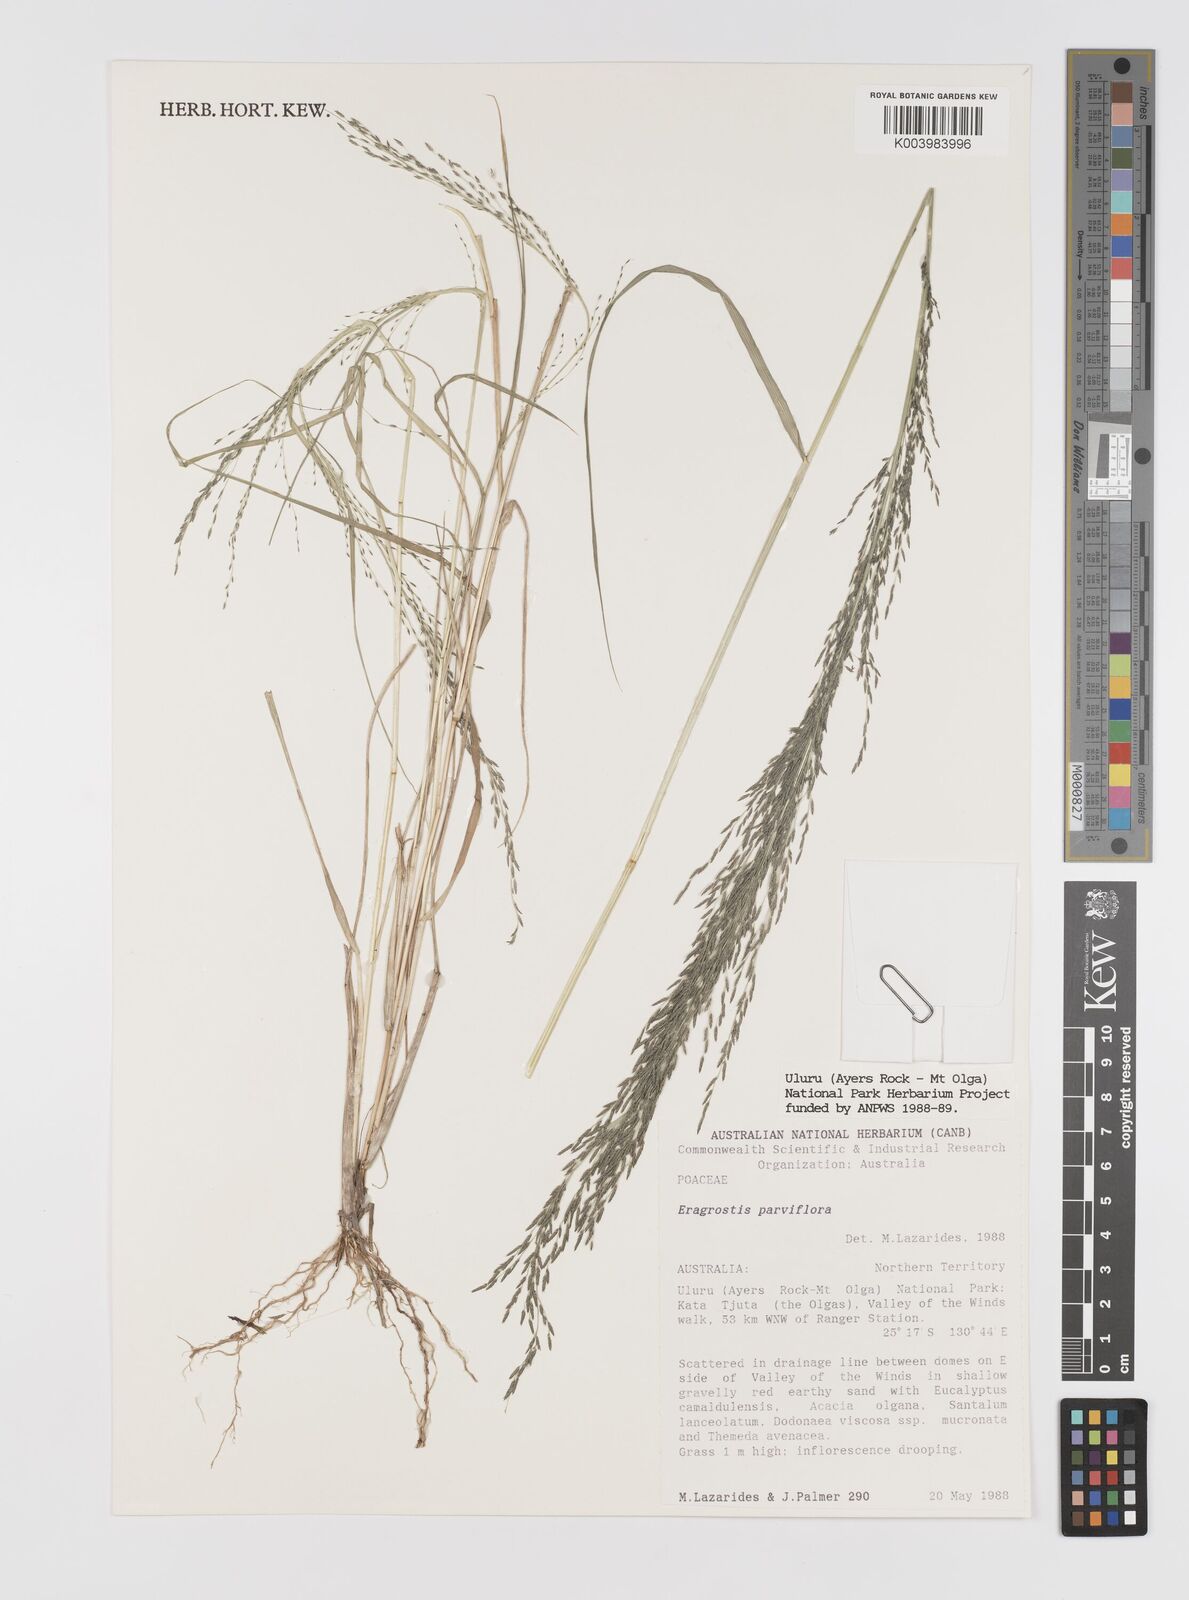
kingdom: Plantae
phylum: Tracheophyta
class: Liliopsida
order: Poales
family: Poaceae
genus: Eragrostis
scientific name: Eragrostis parviflora
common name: Weeping love-grass
